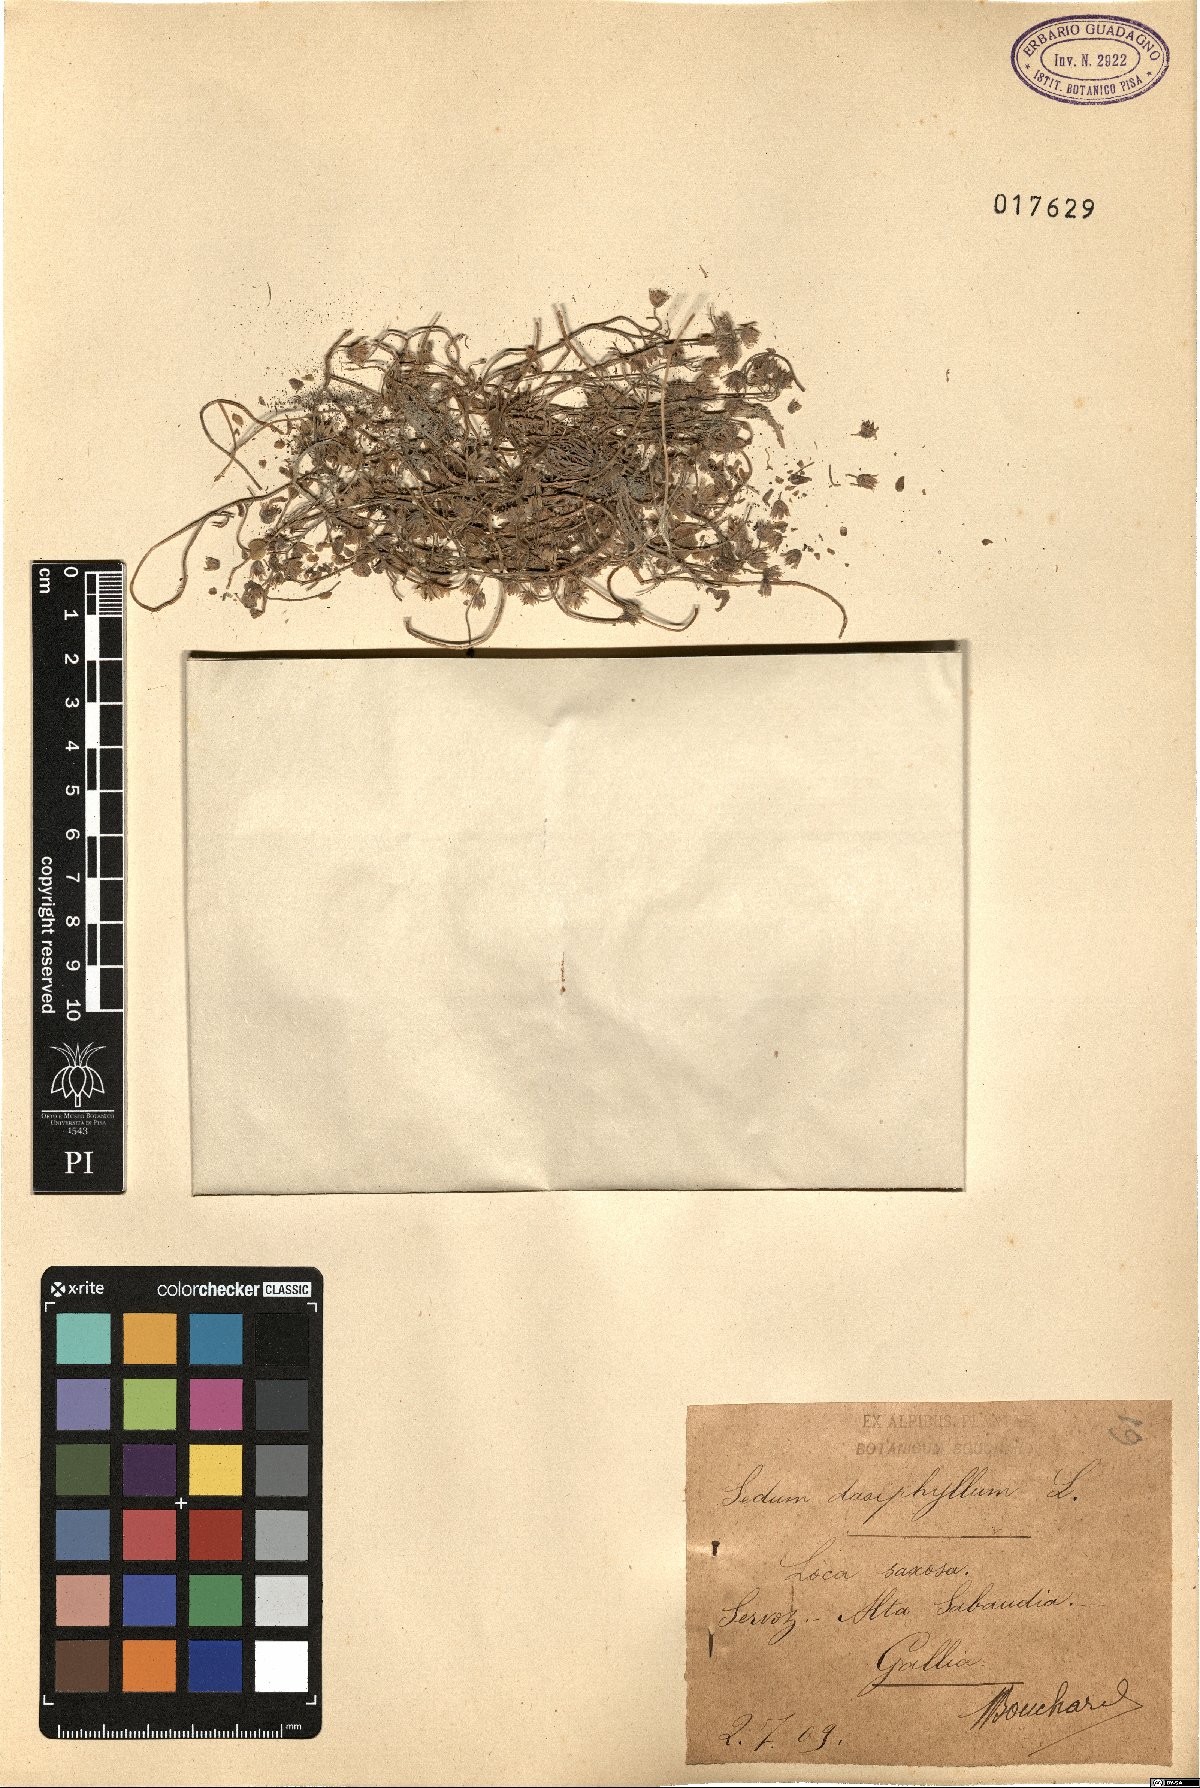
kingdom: Plantae
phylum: Tracheophyta
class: Magnoliopsida
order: Saxifragales
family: Crassulaceae
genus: Sedum
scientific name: Sedum dasyphyllum
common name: Thick-leaf stonecrop
